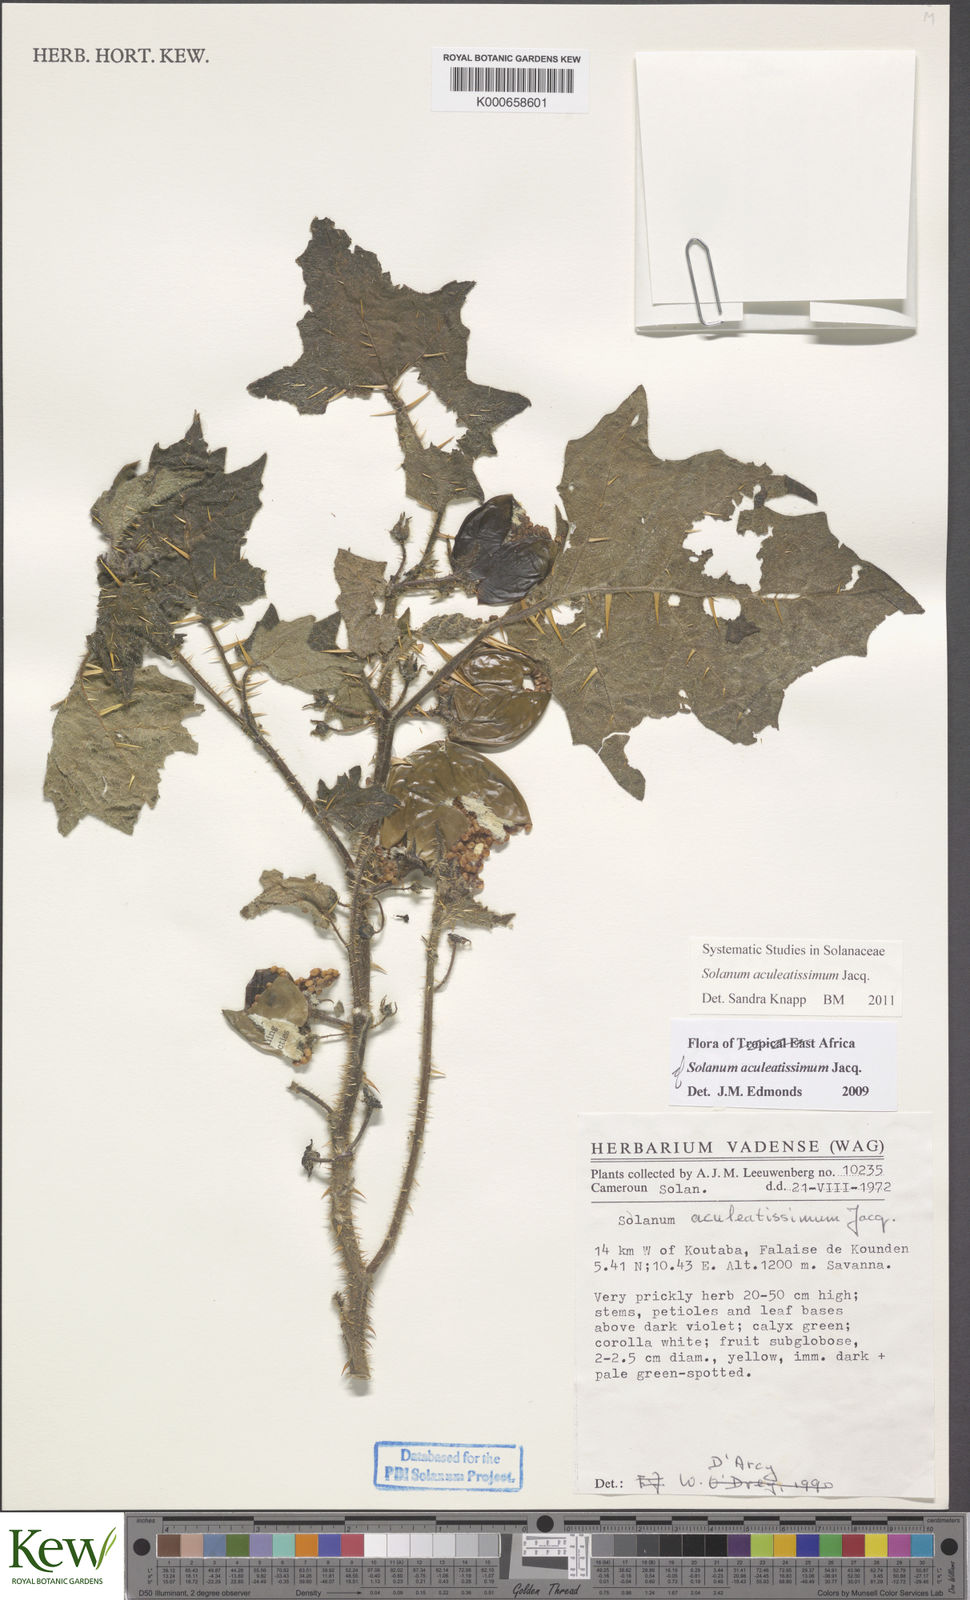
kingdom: Plantae
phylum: Tracheophyta
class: Magnoliopsida
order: Solanales
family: Solanaceae
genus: Solanum
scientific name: Solanum aculeatissimum
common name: Dutch eggplant
